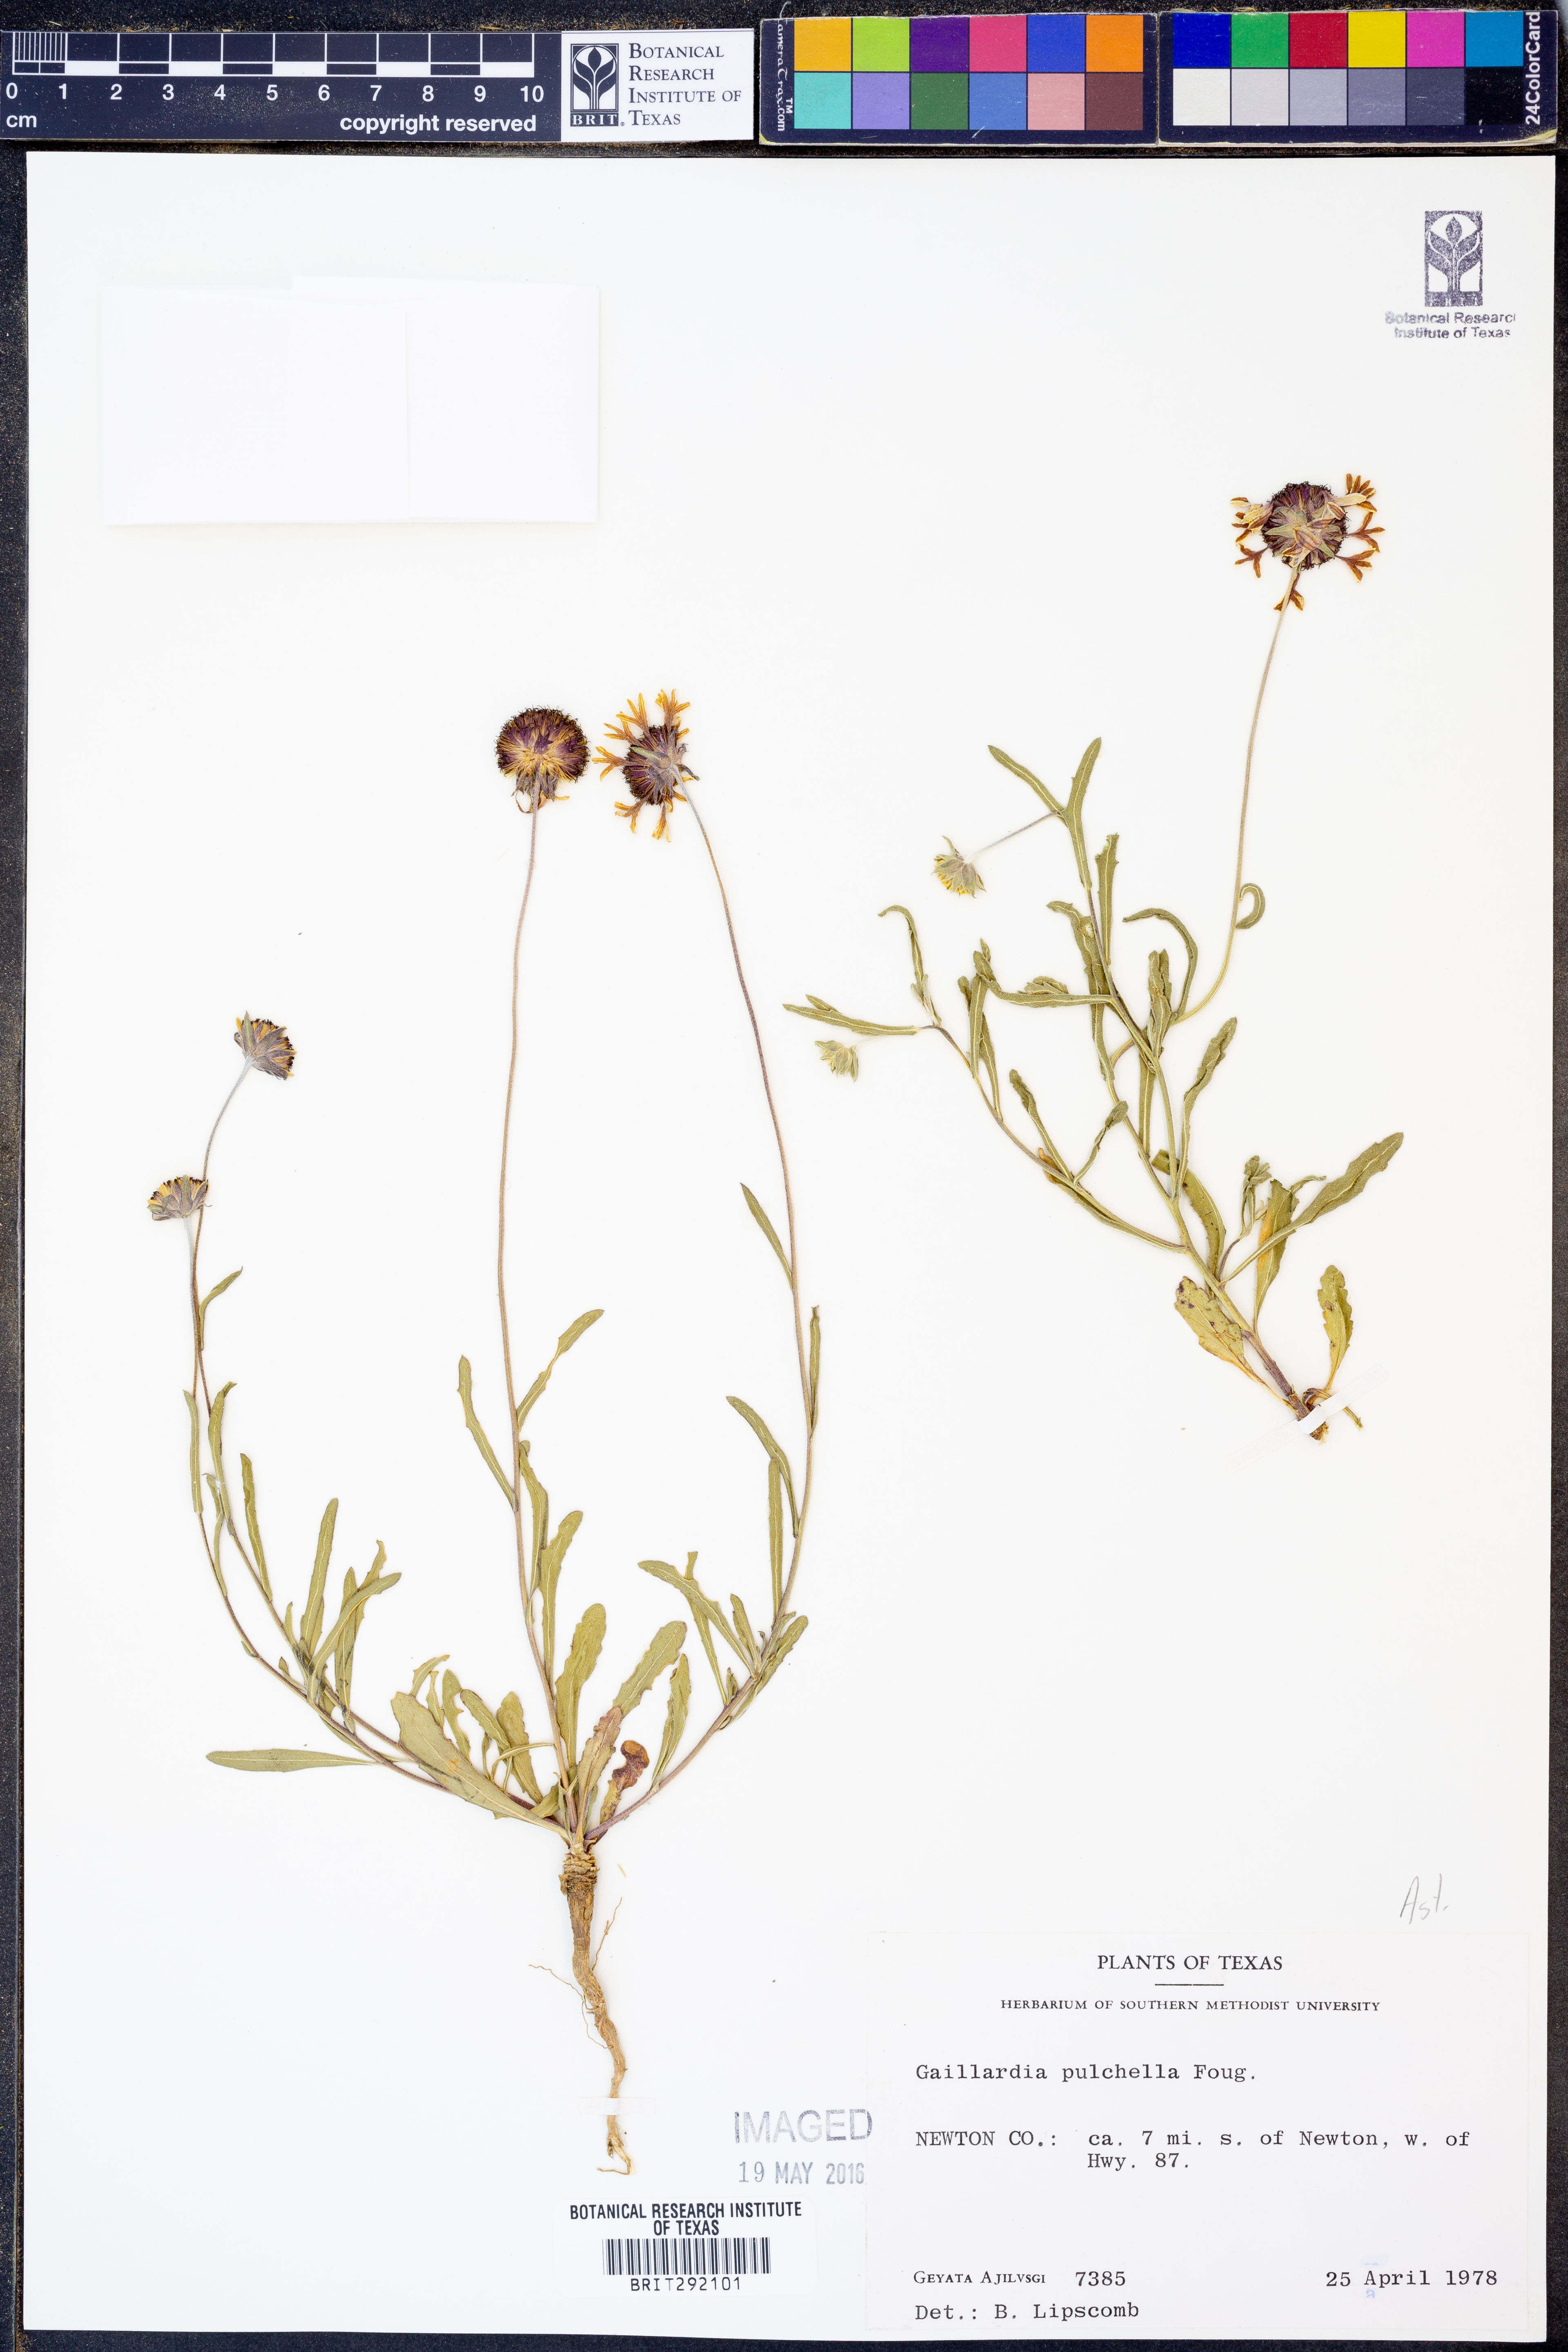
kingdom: Plantae
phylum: Tracheophyta
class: Magnoliopsida
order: Asterales
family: Asteraceae
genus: Gaillardia
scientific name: Gaillardia pulchella
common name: Firewheel
